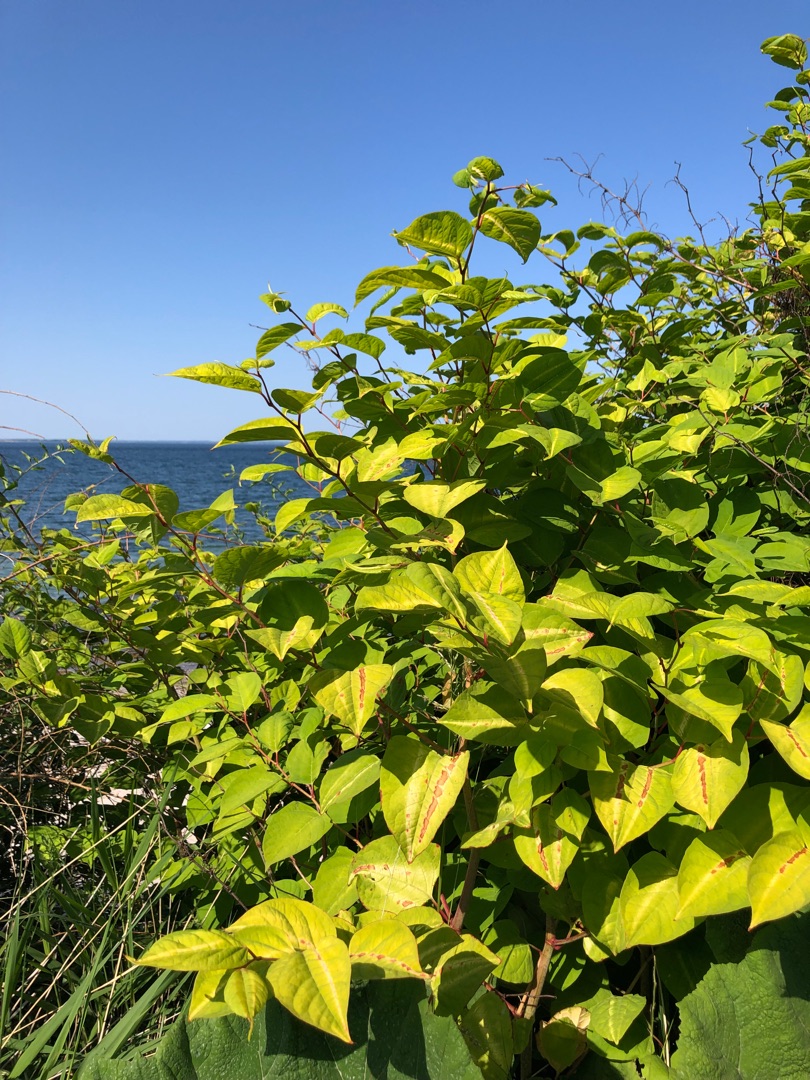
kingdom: Plantae
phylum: Tracheophyta
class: Magnoliopsida
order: Caryophyllales
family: Polygonaceae
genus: Reynoutria
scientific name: Reynoutria japonica
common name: Japan-pileurt
